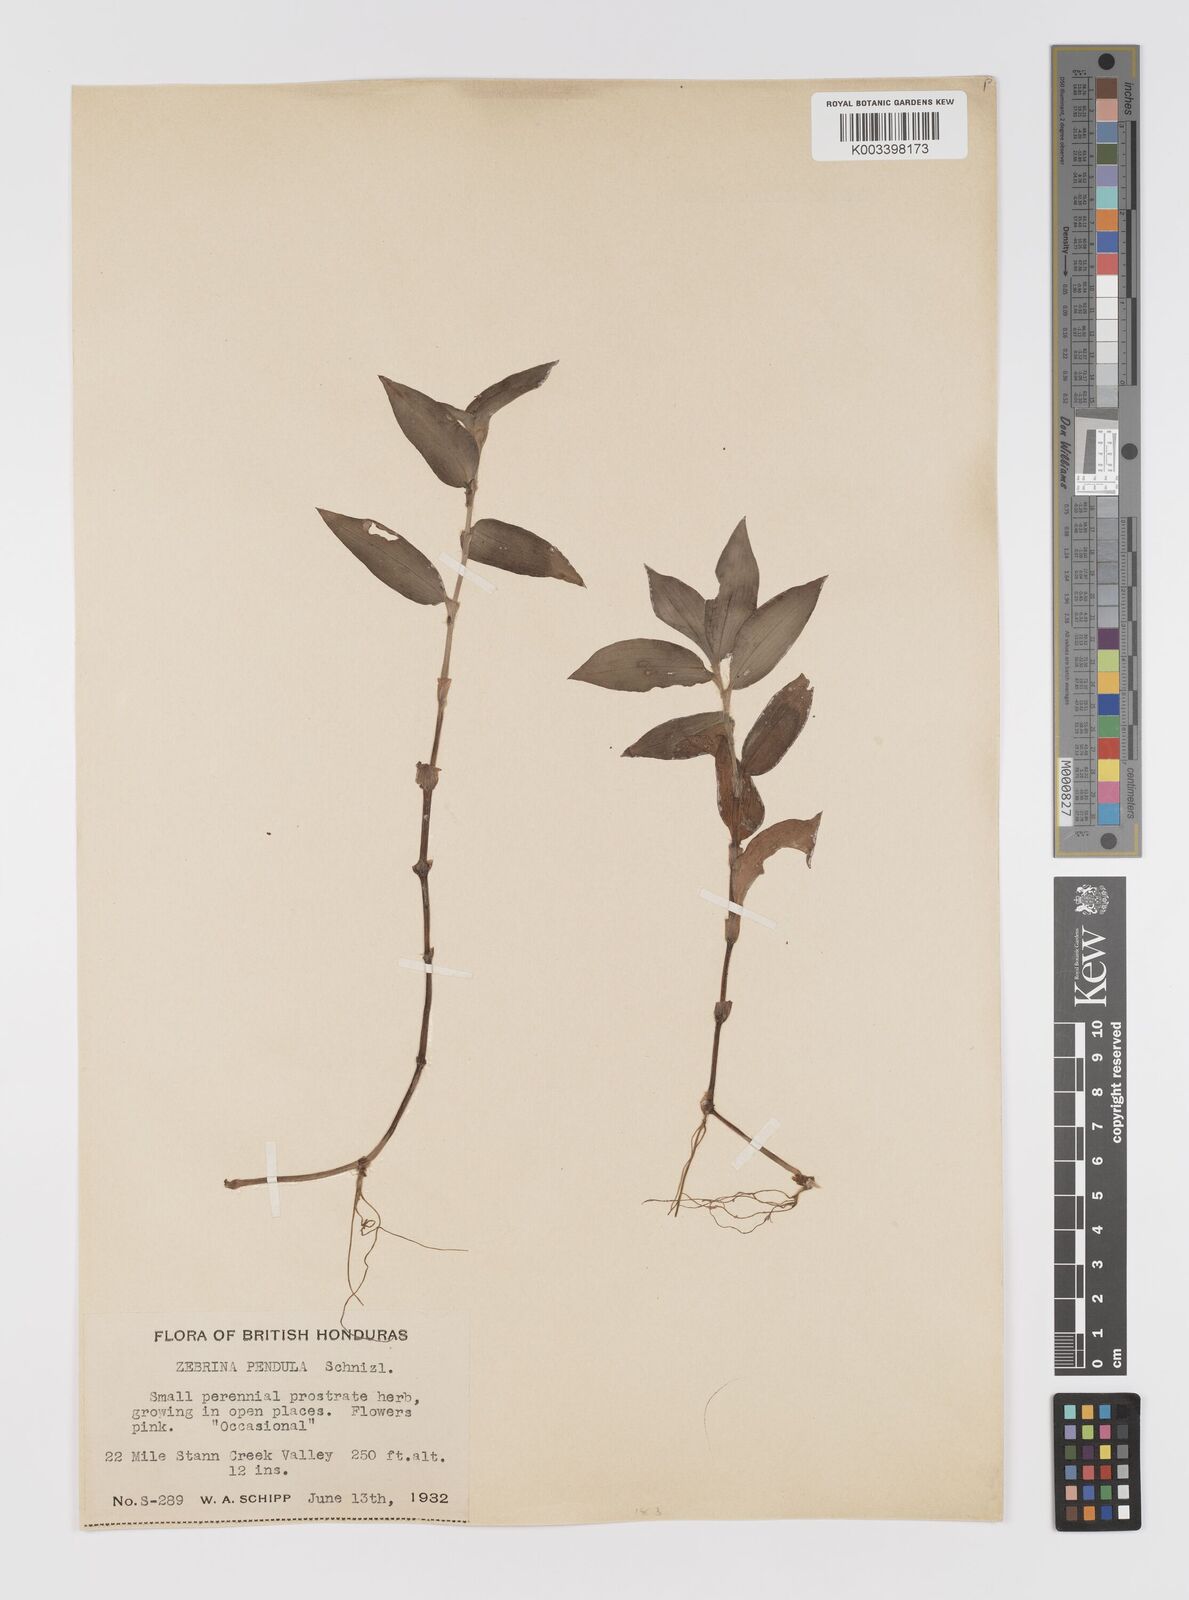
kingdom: Plantae
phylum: Tracheophyta
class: Liliopsida
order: Commelinales
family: Commelinaceae
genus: Tradescantia
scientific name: Tradescantia zebrina
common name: Inchplant
